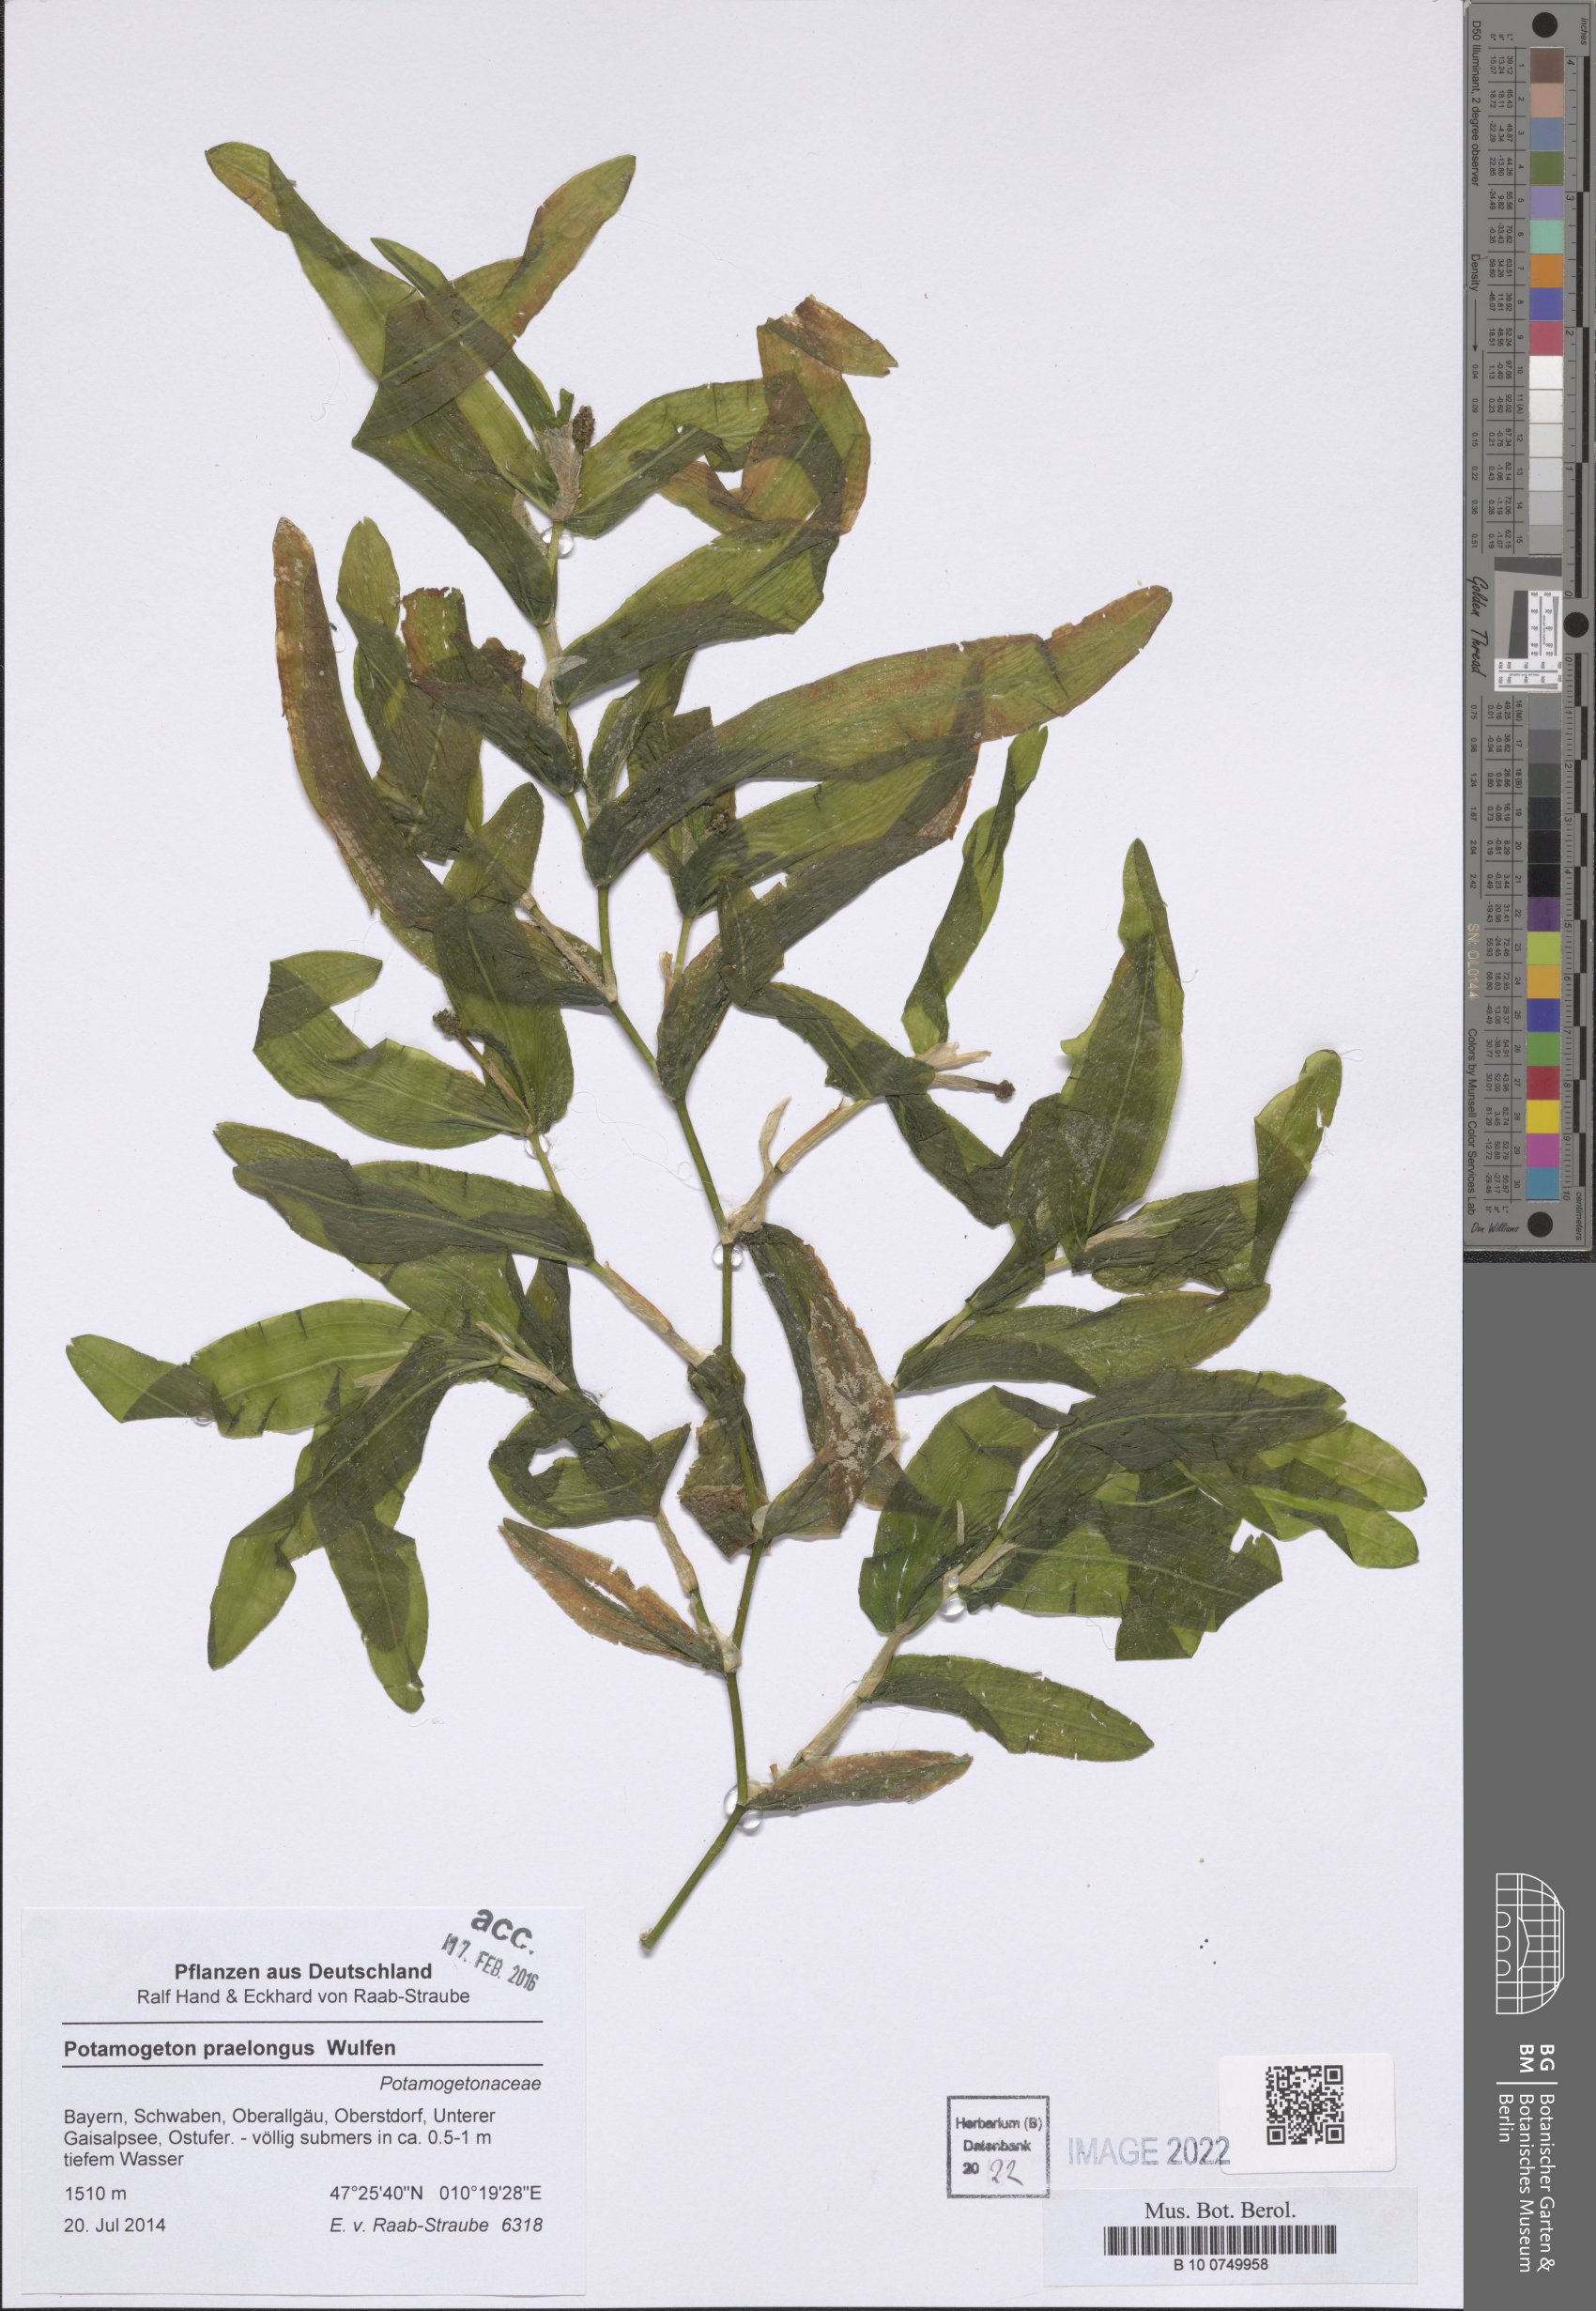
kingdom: Plantae
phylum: Tracheophyta
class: Liliopsida
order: Alismatales
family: Potamogetonaceae
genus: Potamogeton
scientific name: Potamogeton praelongus
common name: Long-stalked pondweed
